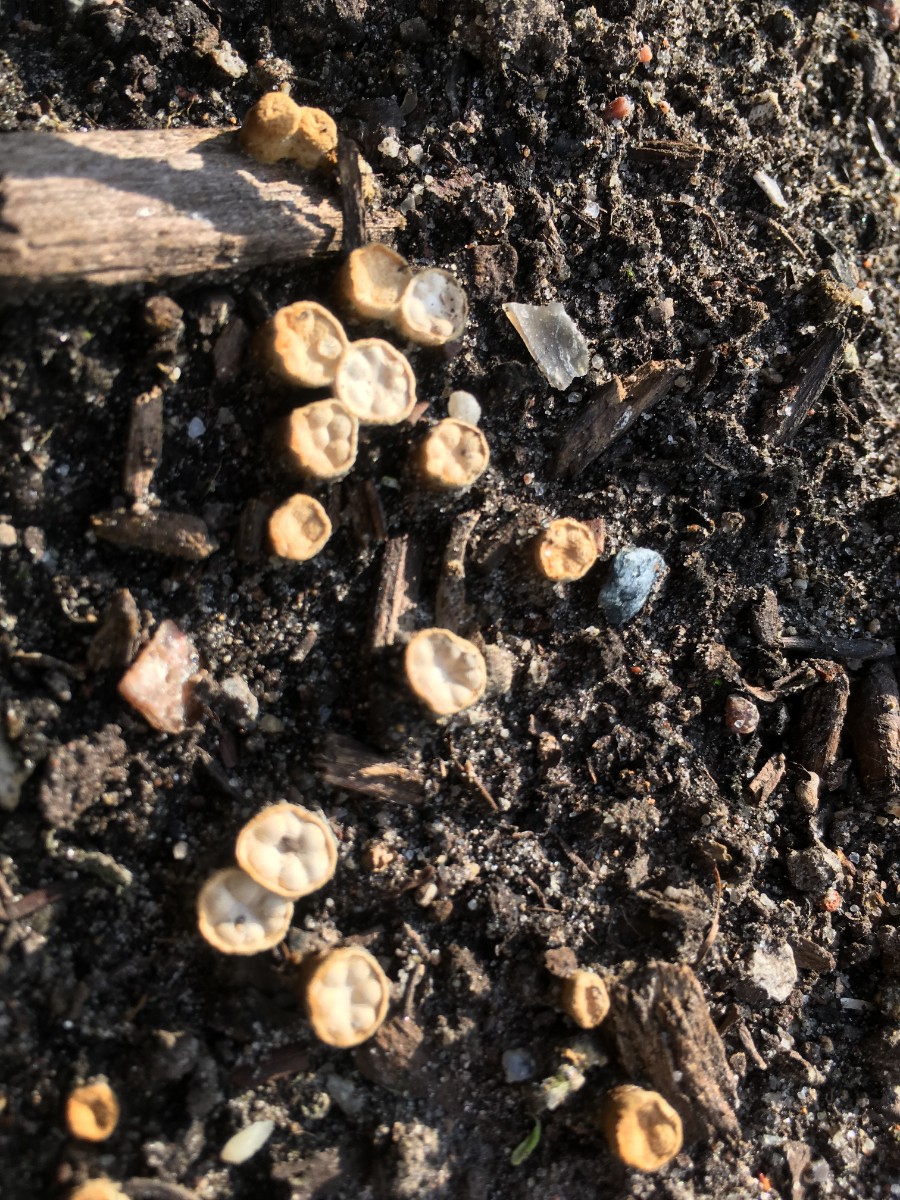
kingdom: Fungi
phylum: Basidiomycota
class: Agaricomycetes
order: Agaricales
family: Nidulariaceae
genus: Crucibulum
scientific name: Crucibulum crucibuliforme
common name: krukkesvamp
